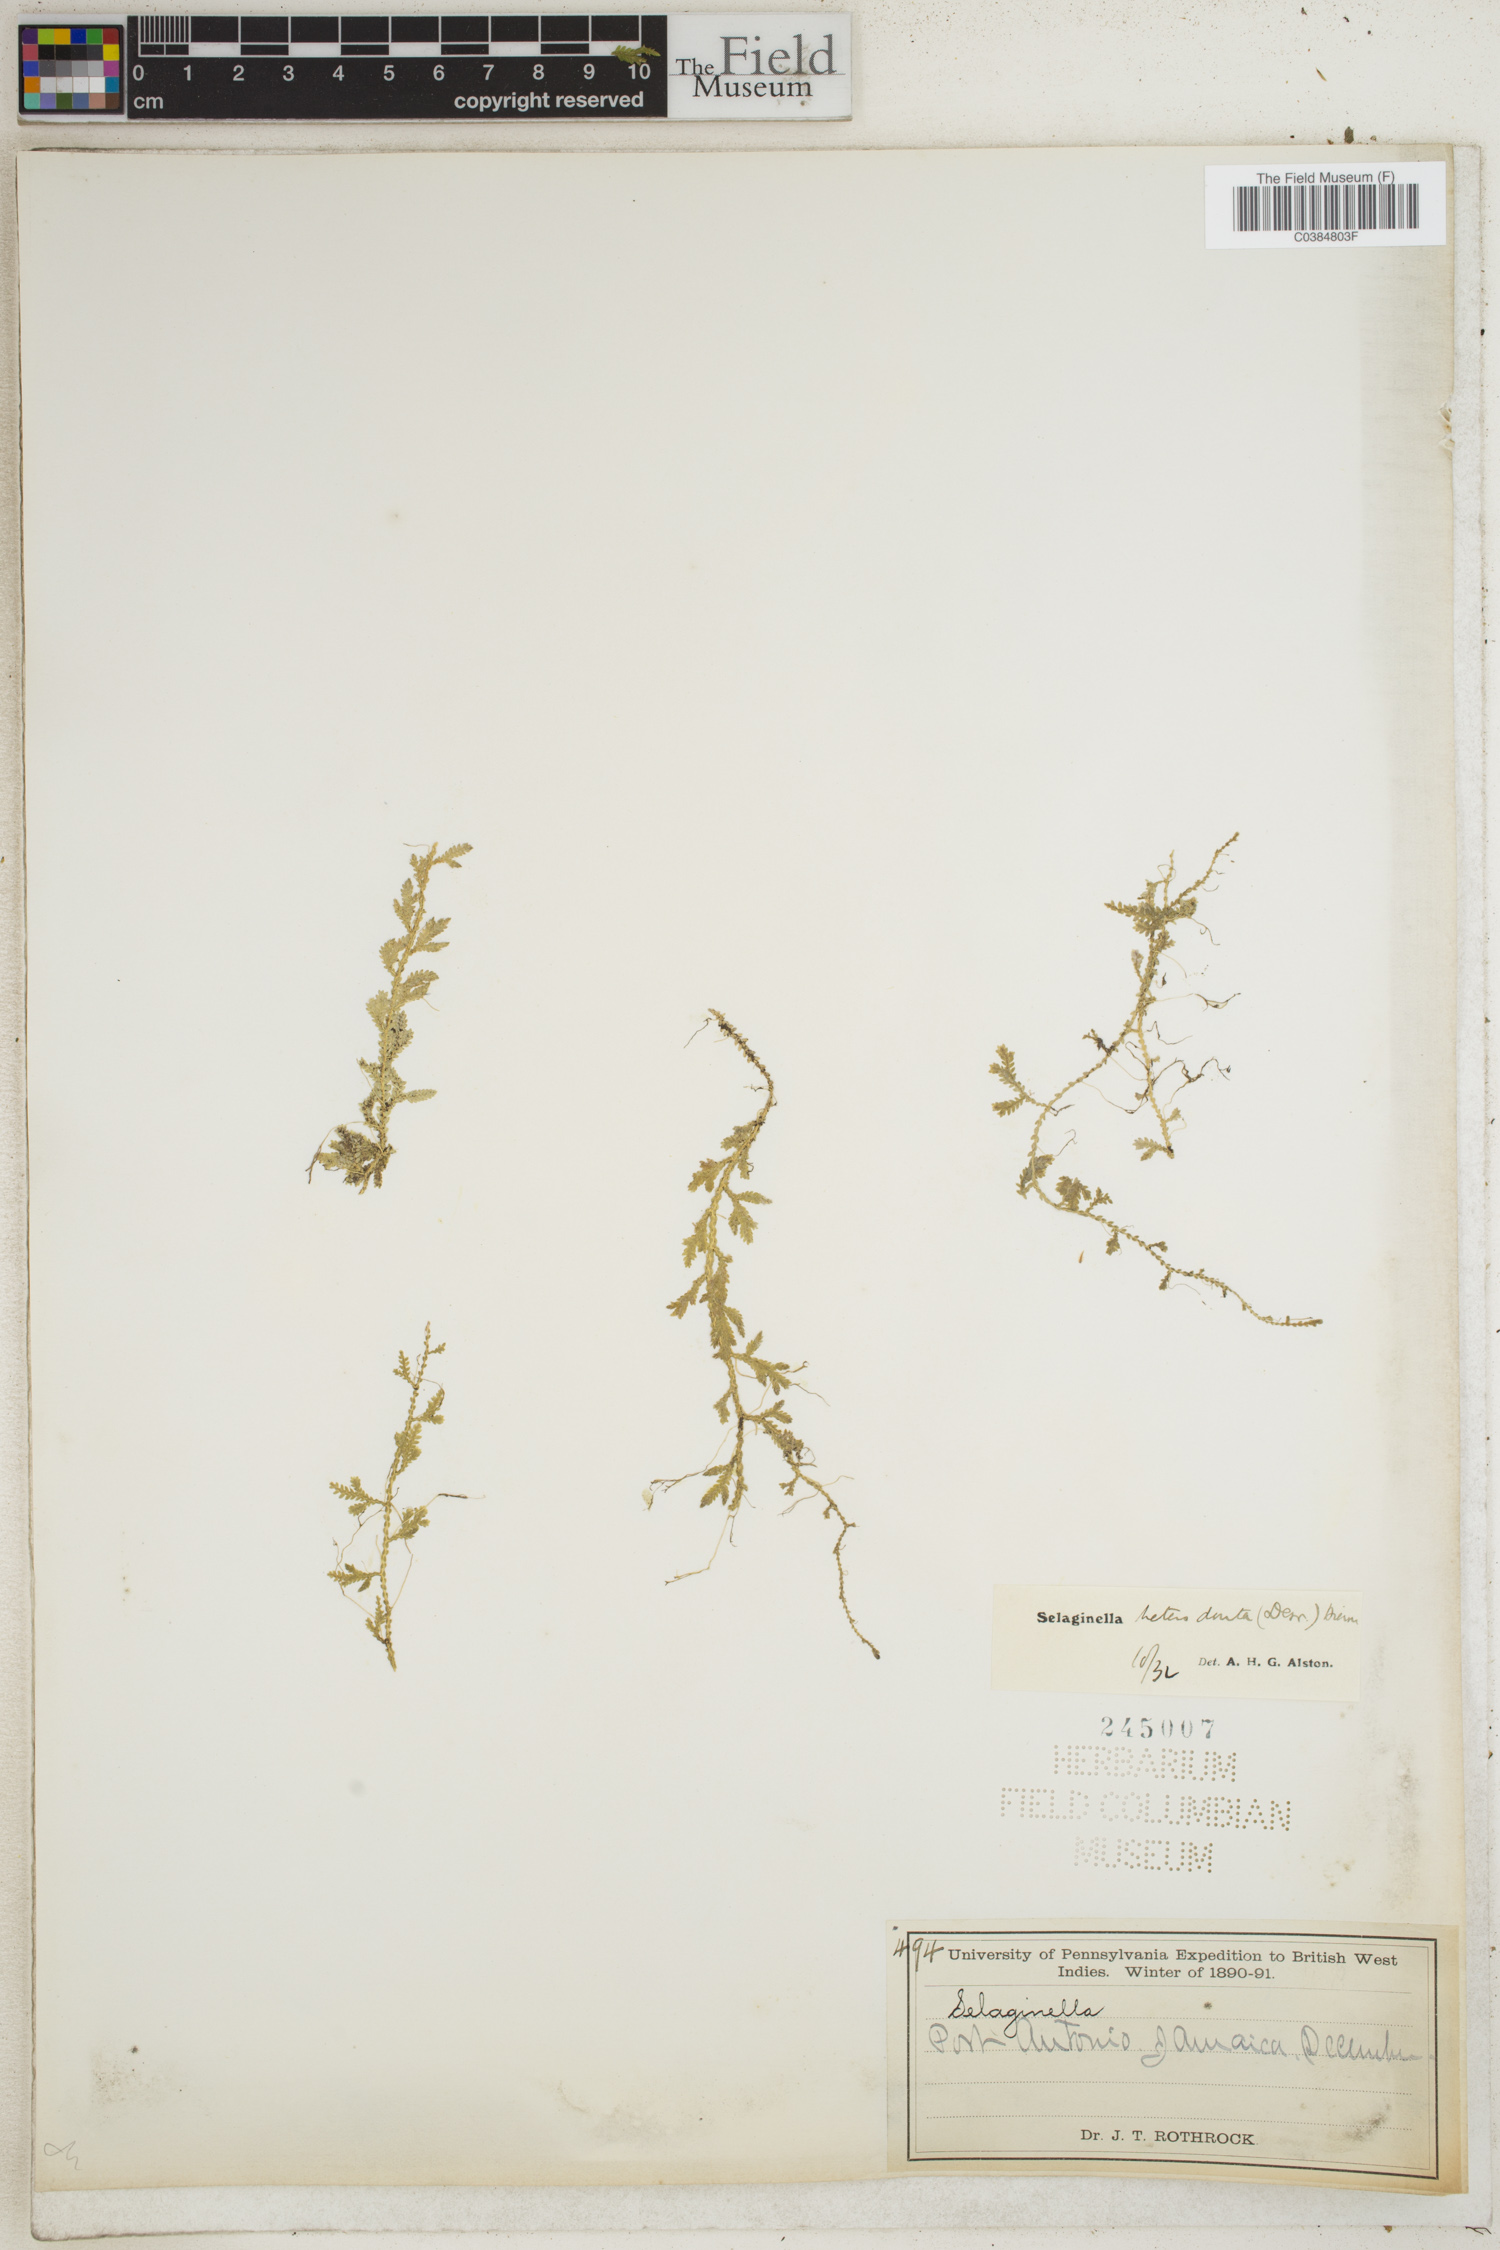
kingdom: Plantae
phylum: Tracheophyta
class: Lycopodiopsida
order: Selaginellales
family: Selaginellaceae
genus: Selaginella
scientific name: Selaginella heterodonta
